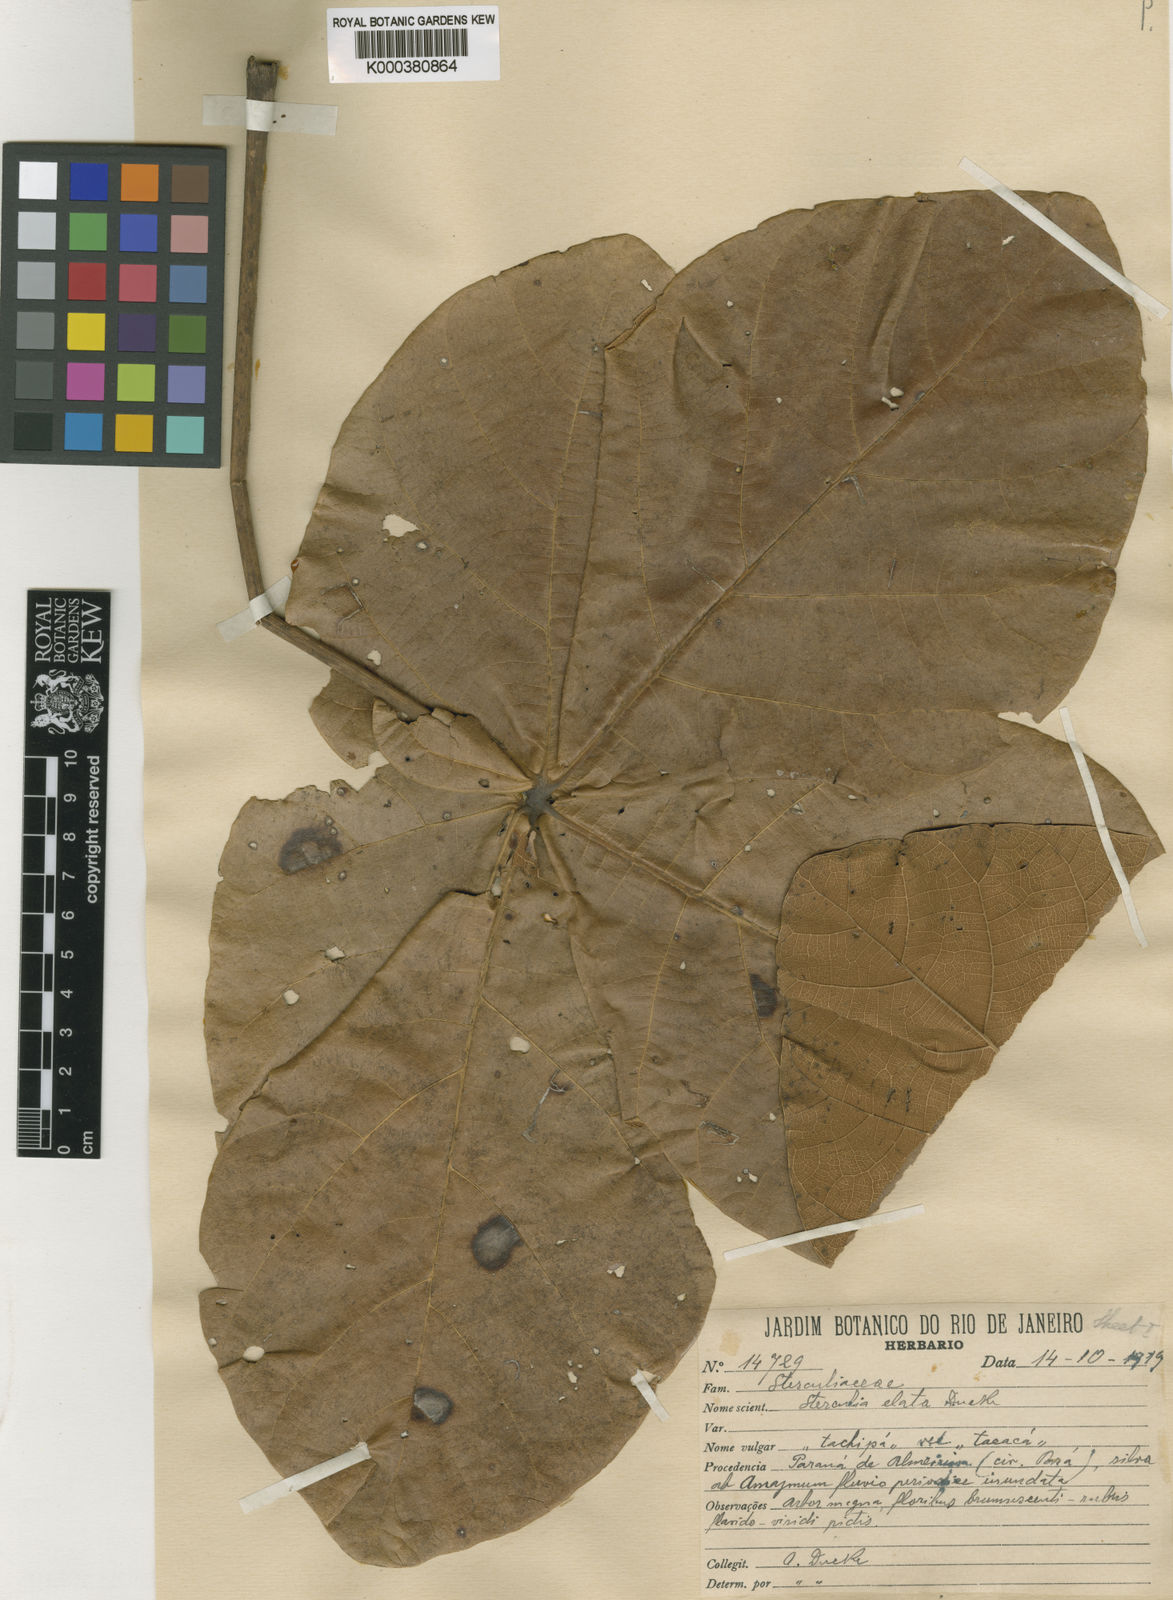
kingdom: Plantae
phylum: Tracheophyta
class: Magnoliopsida
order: Malvales
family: Malvaceae
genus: Sterculia
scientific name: Sterculia apetala
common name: Panama tree
